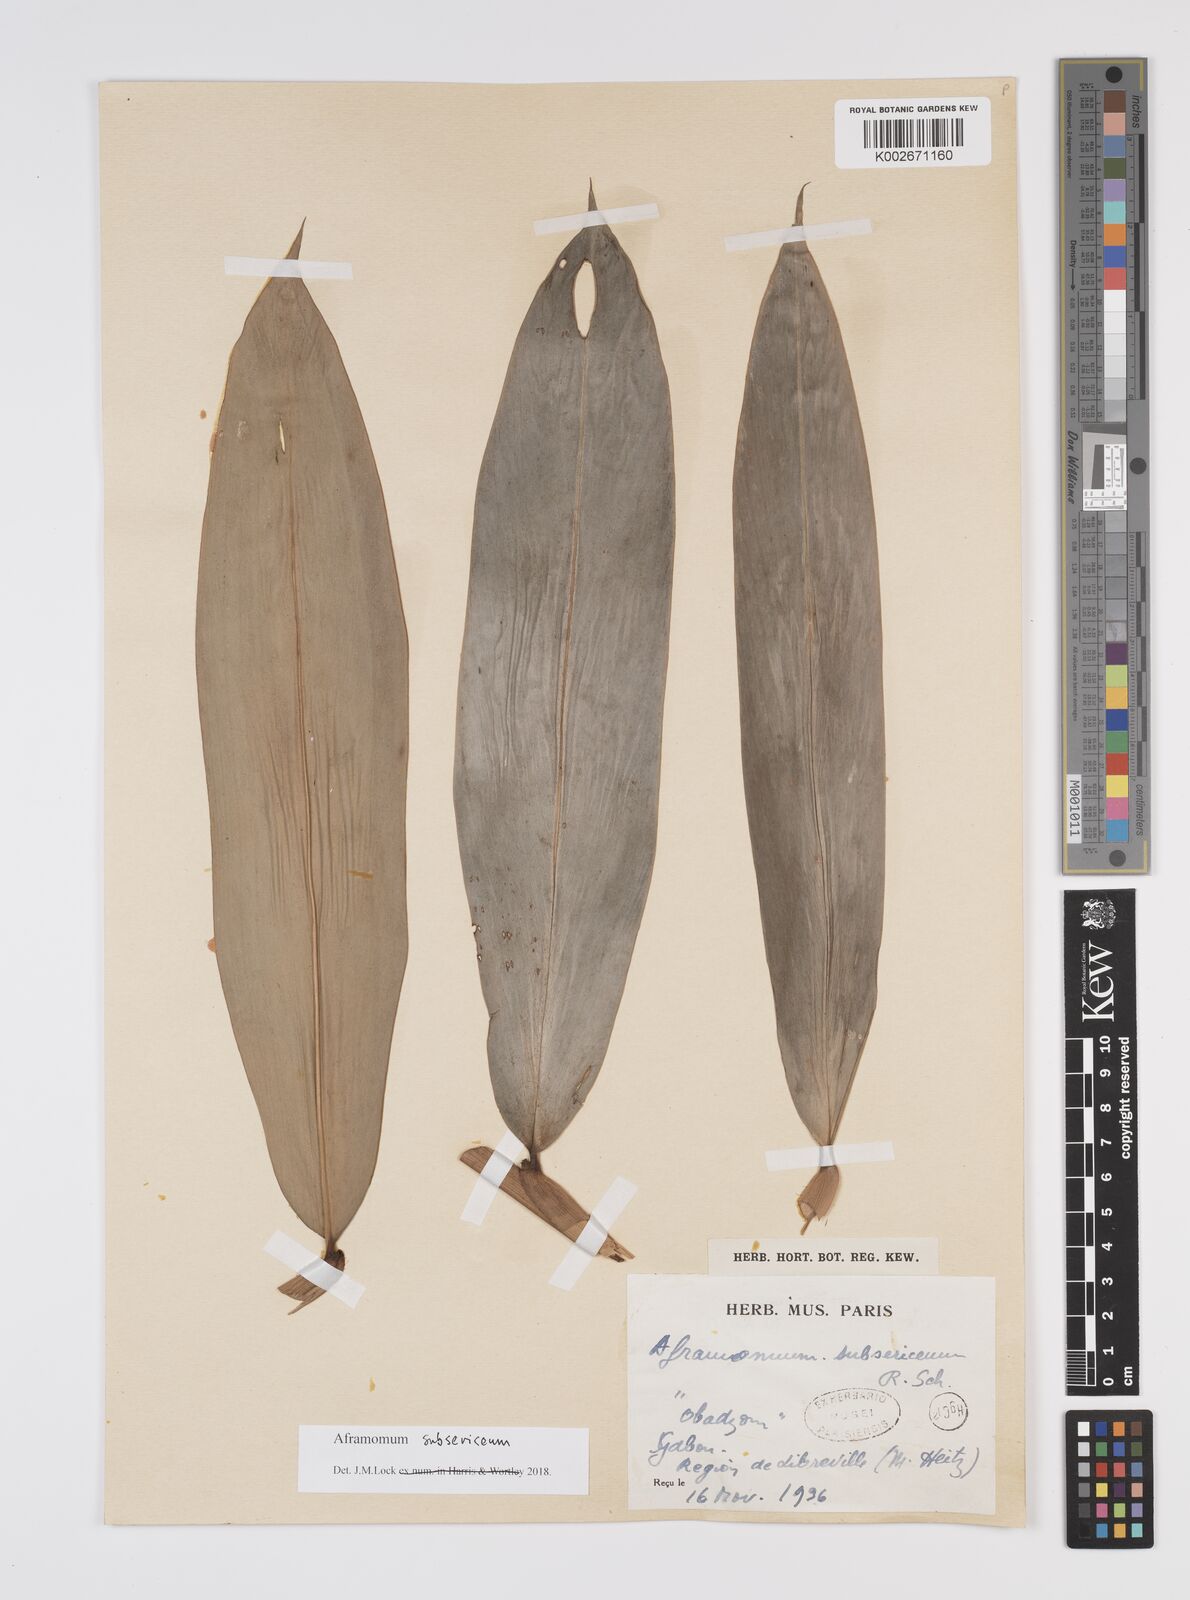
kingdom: Plantae
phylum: Tracheophyta
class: Liliopsida
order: Zingiberales
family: Zingiberaceae
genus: Aframomum
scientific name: Aframomum subsericeum
